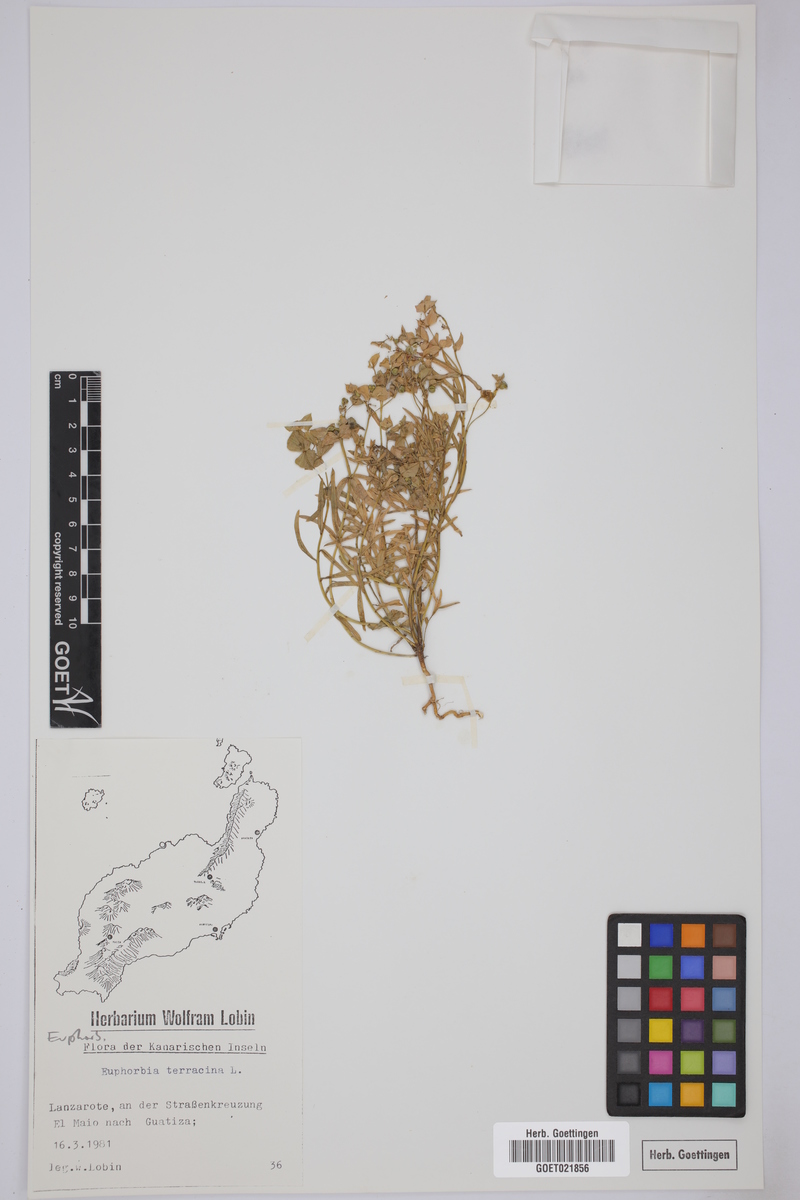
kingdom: Plantae
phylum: Tracheophyta
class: Magnoliopsida
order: Malpighiales
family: Euphorbiaceae
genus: Euphorbia
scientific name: Euphorbia terracina
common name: Geraldton carnation weed
